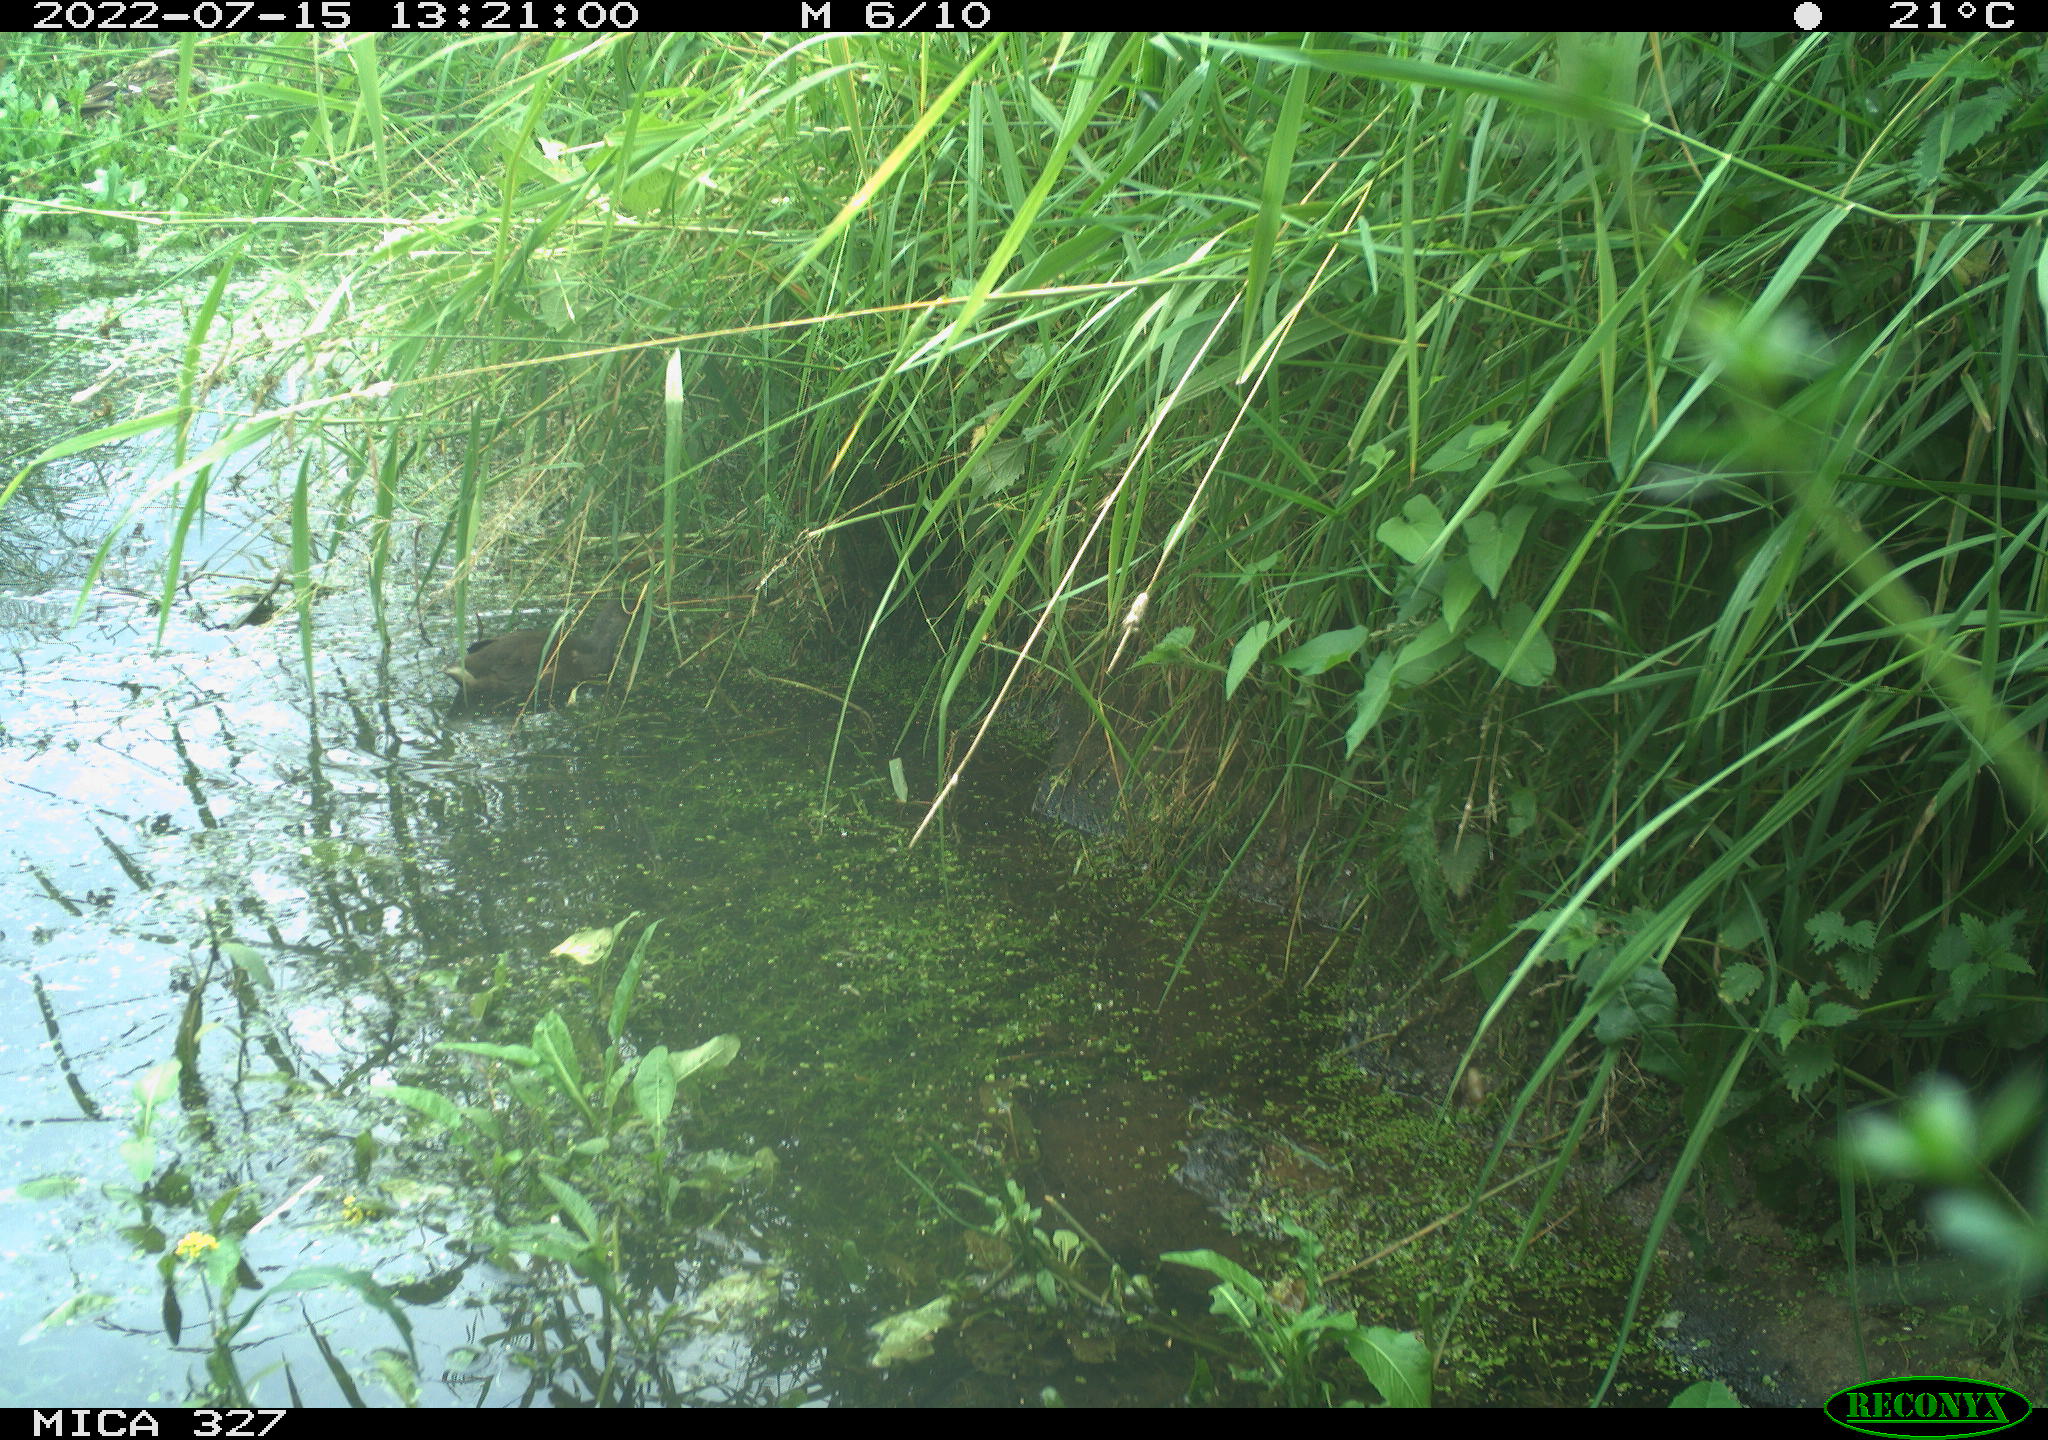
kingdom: Animalia
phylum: Chordata
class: Aves
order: Gruiformes
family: Rallidae
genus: Gallinula
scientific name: Gallinula chloropus
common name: Common moorhen
